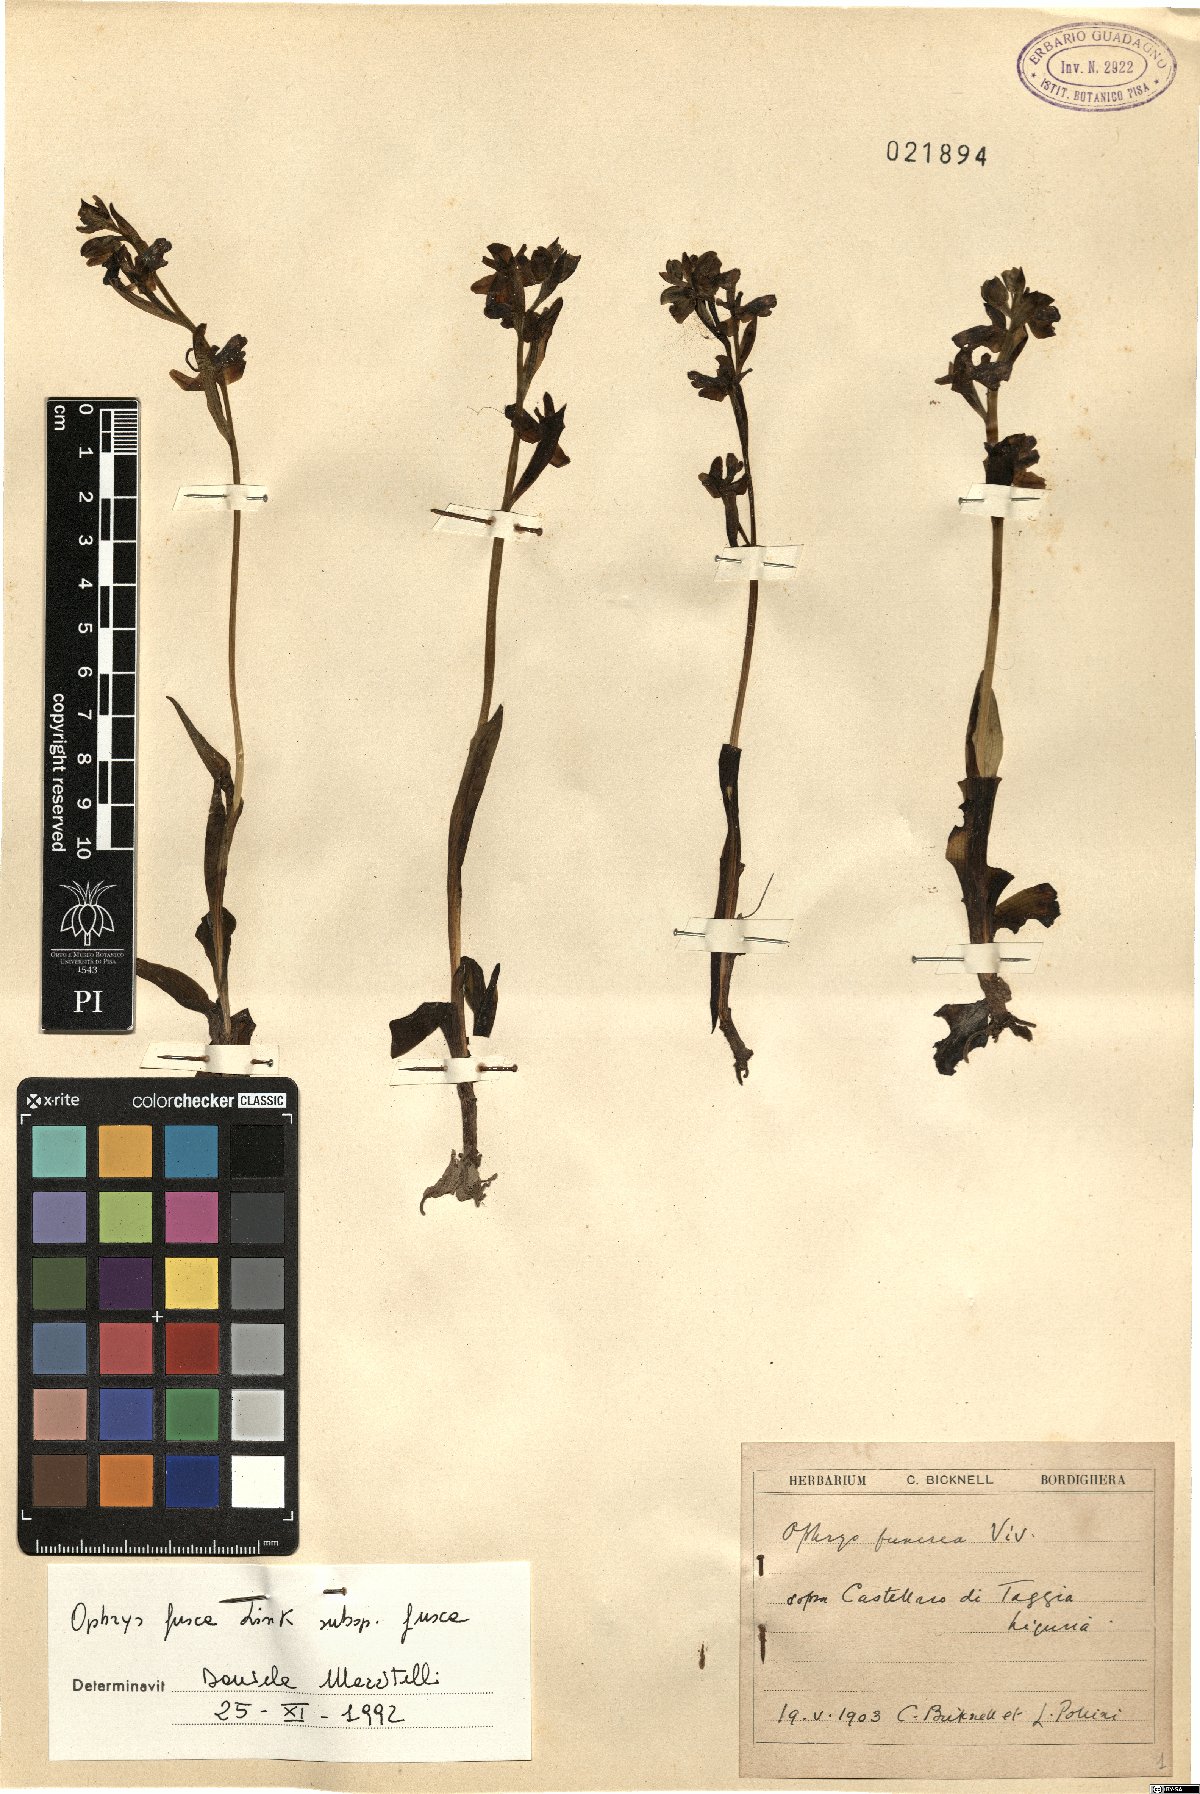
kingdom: Plantae
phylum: Tracheophyta
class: Liliopsida
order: Asparagales
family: Orchidaceae
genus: Ophrys
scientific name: Ophrys fusca
